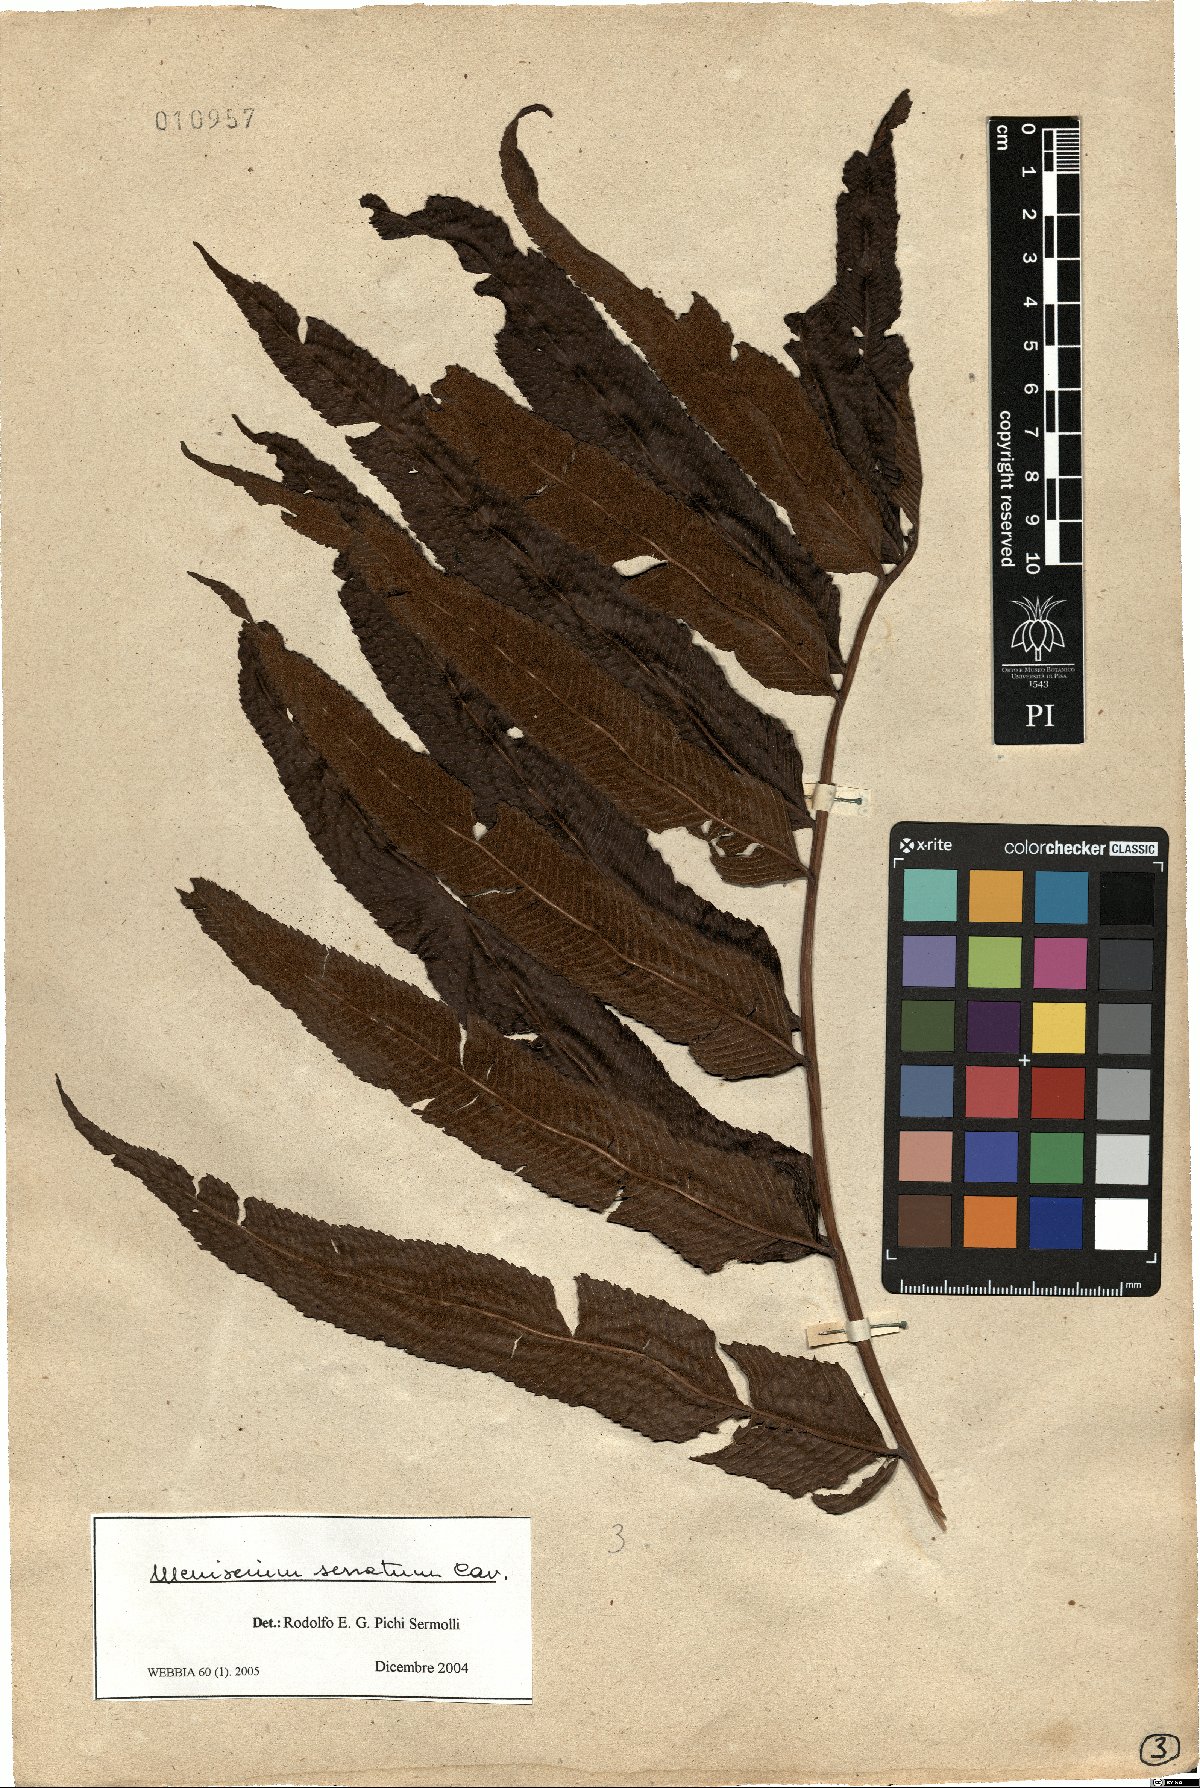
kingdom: Plantae
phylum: Tracheophyta
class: Polypodiopsida
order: Polypodiales
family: Thelypteridaceae
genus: Meniscium
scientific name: Meniscium serratum
